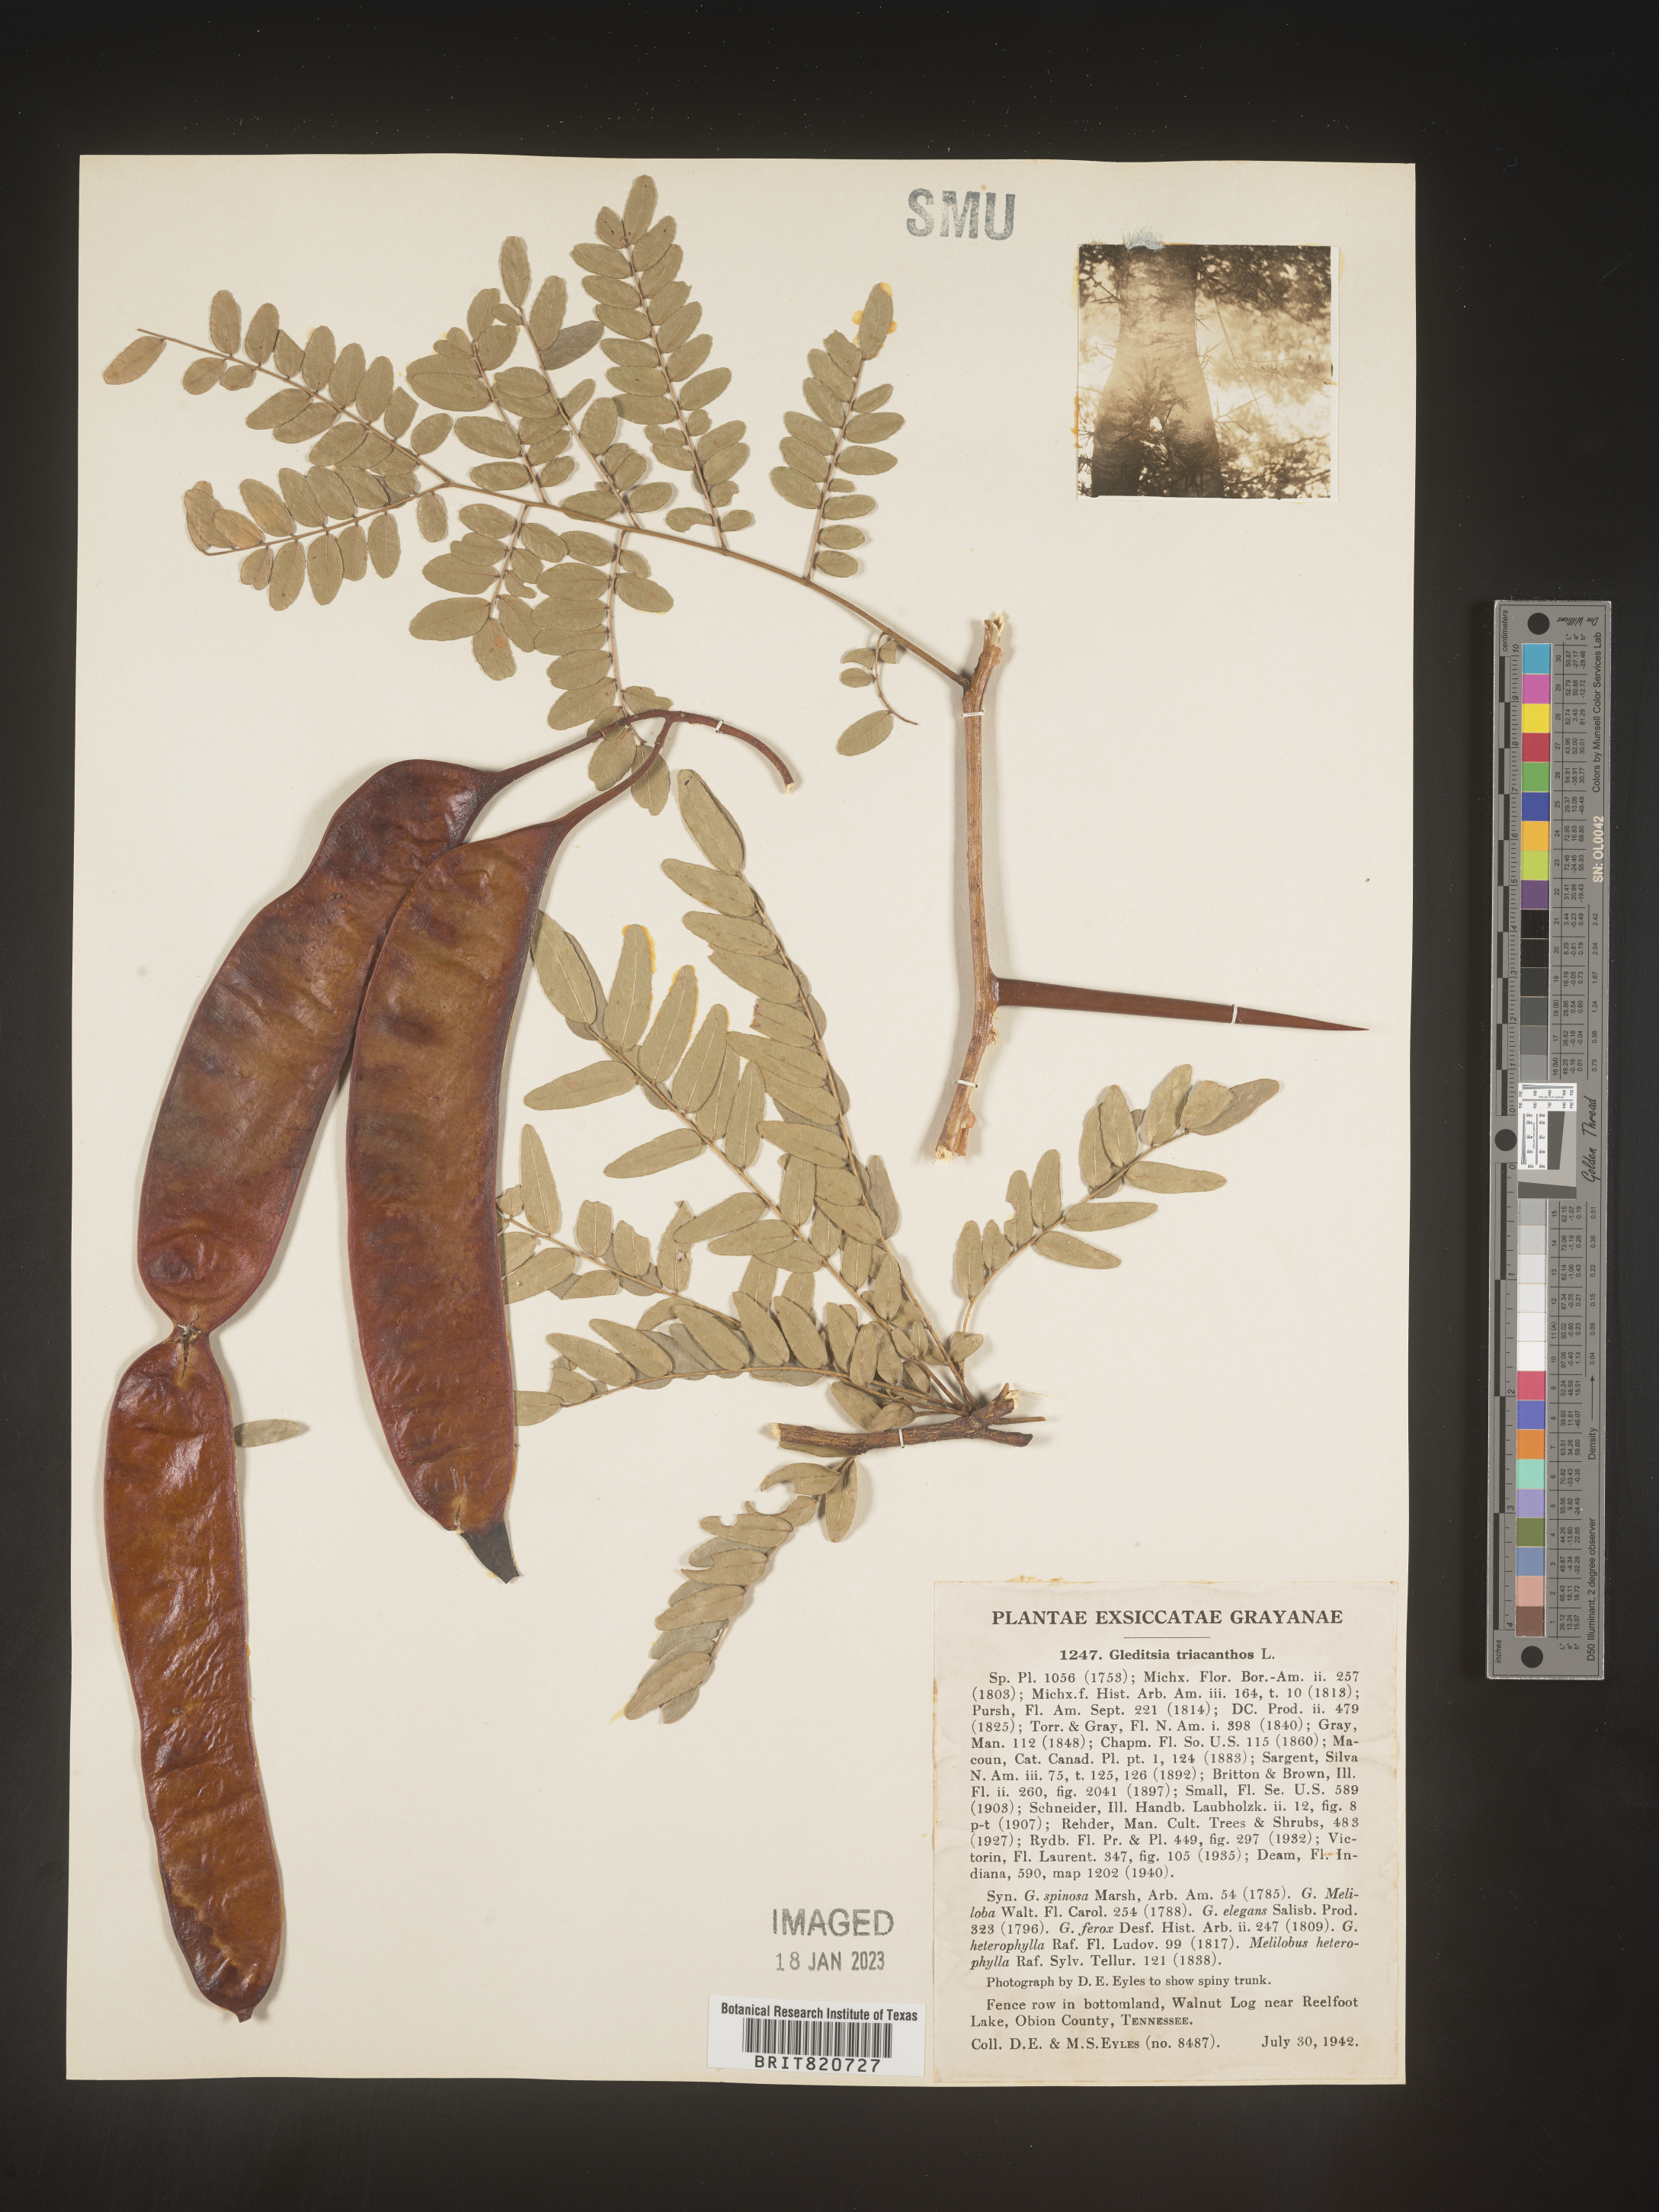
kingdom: Plantae
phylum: Tracheophyta
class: Magnoliopsida
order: Fabales
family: Fabaceae
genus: Gleditsia
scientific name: Gleditsia triacanthos
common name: Common honeylocust
